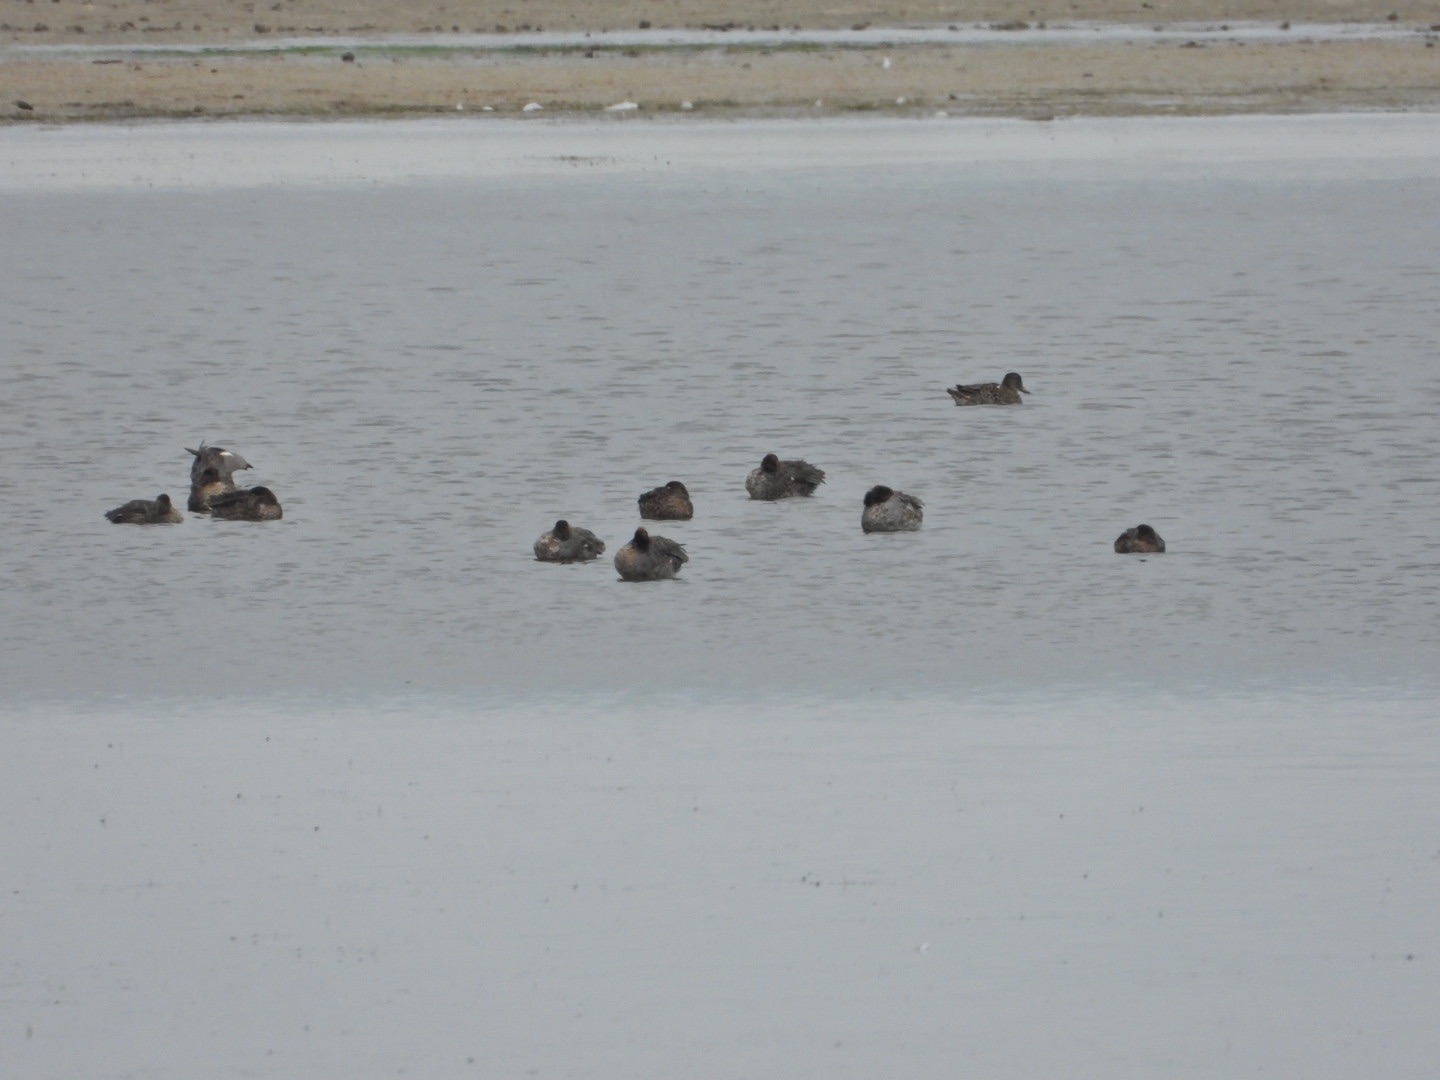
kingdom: Animalia
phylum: Chordata
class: Aves
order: Anseriformes
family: Anatidae
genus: Anas
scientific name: Anas crecca
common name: Krikand
